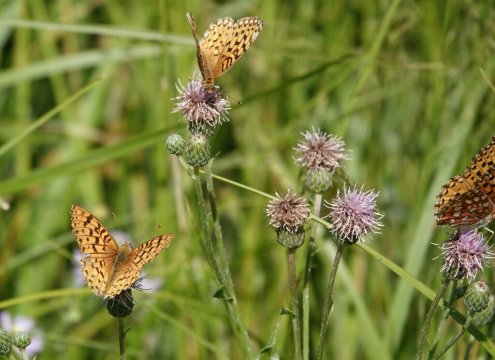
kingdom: Animalia
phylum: Arthropoda
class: Insecta
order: Lepidoptera
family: Nymphalidae
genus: Speyeria
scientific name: Speyeria
